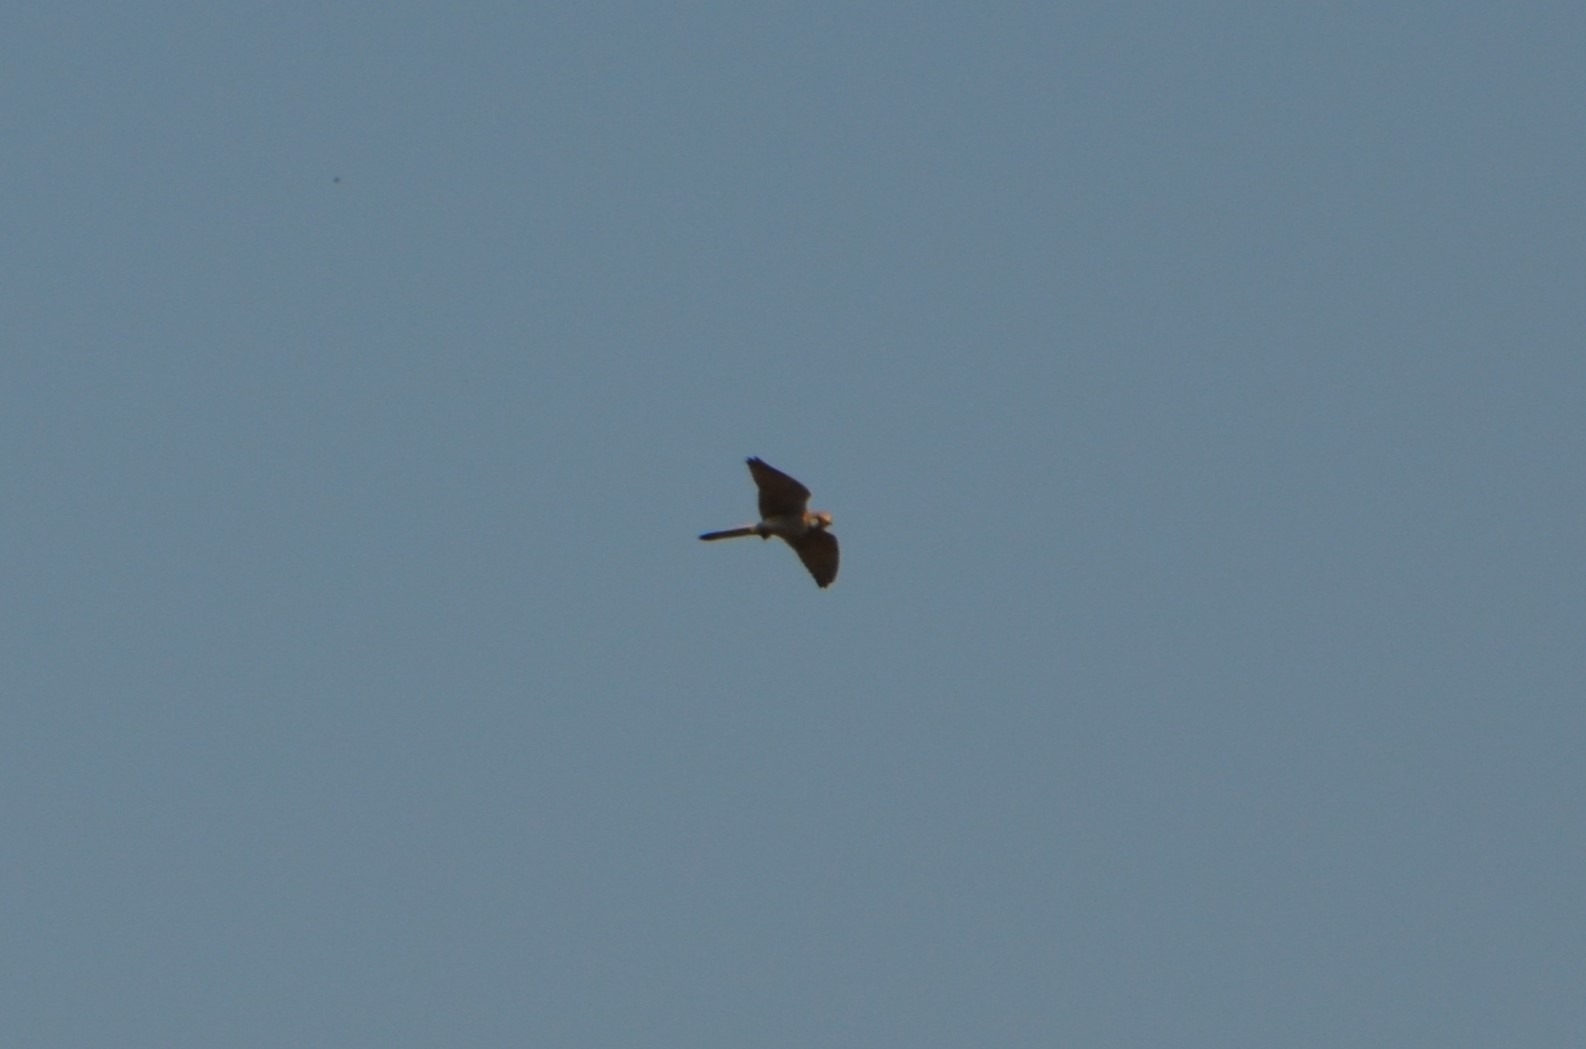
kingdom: Animalia
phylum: Chordata
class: Aves
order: Falconiformes
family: Falconidae
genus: Falco
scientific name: Falco tinnunculus
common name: Tårnfalk
